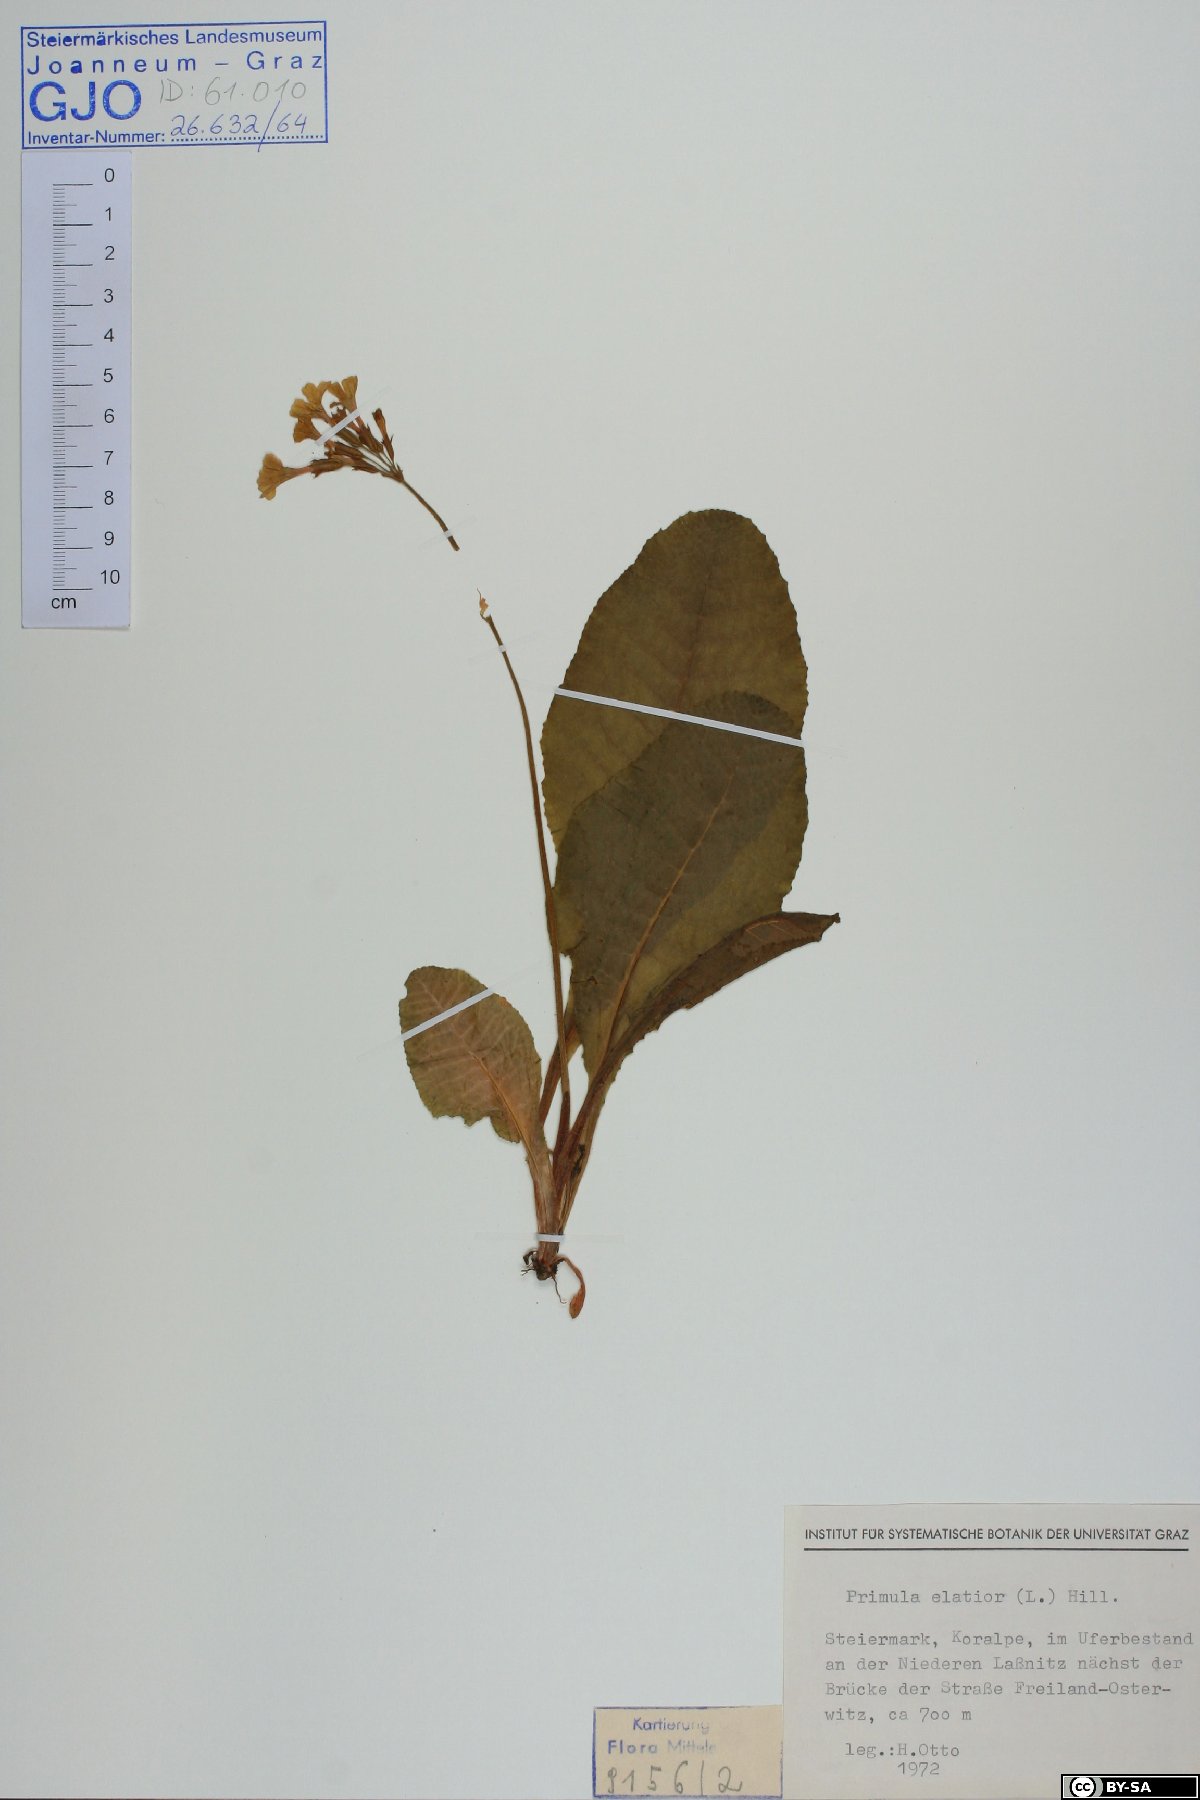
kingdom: Plantae
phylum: Tracheophyta
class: Magnoliopsida
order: Ericales
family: Primulaceae
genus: Primula
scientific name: Primula elatior
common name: Oxlip
